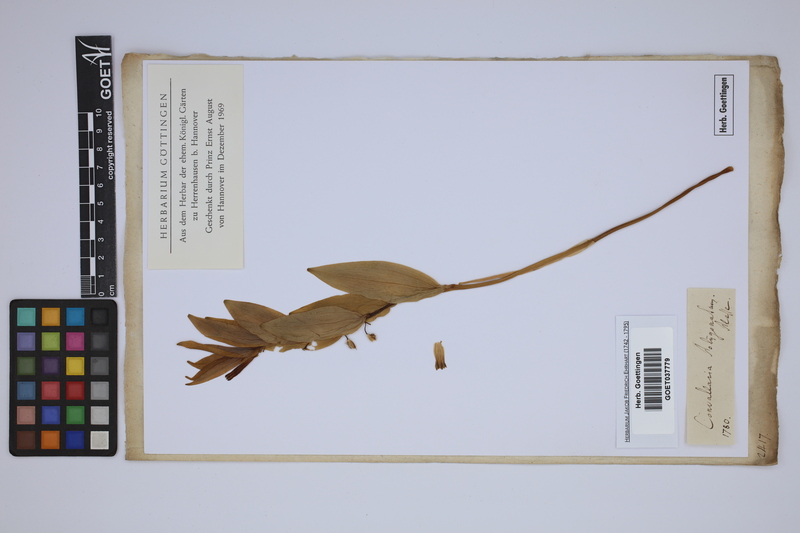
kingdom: Plantae
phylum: Tracheophyta
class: Liliopsida
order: Asparagales
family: Asparagaceae
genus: Polygonatum
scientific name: Polygonatum multiflorum
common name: Solomon's-seal
